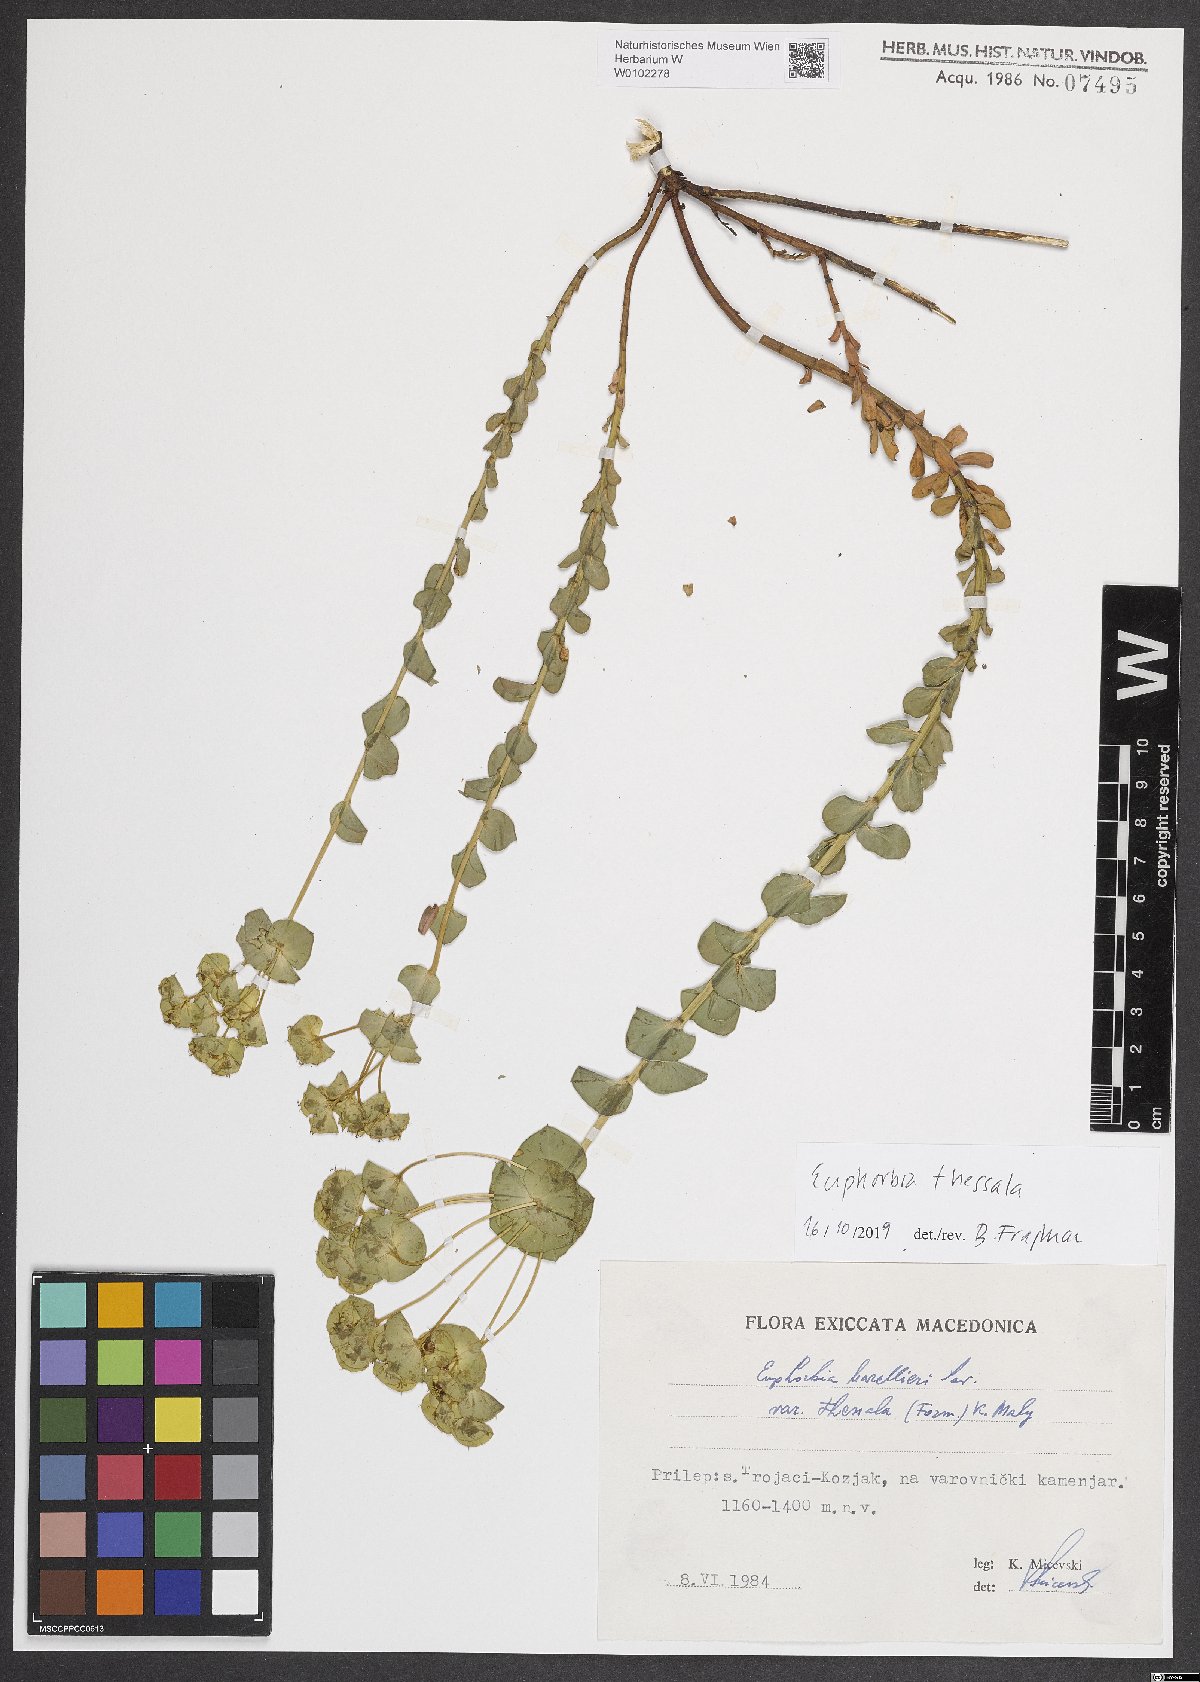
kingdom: Plantae
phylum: Tracheophyta
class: Magnoliopsida
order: Malpighiales
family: Euphorbiaceae
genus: Euphorbia
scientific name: Euphorbia barrelieri
